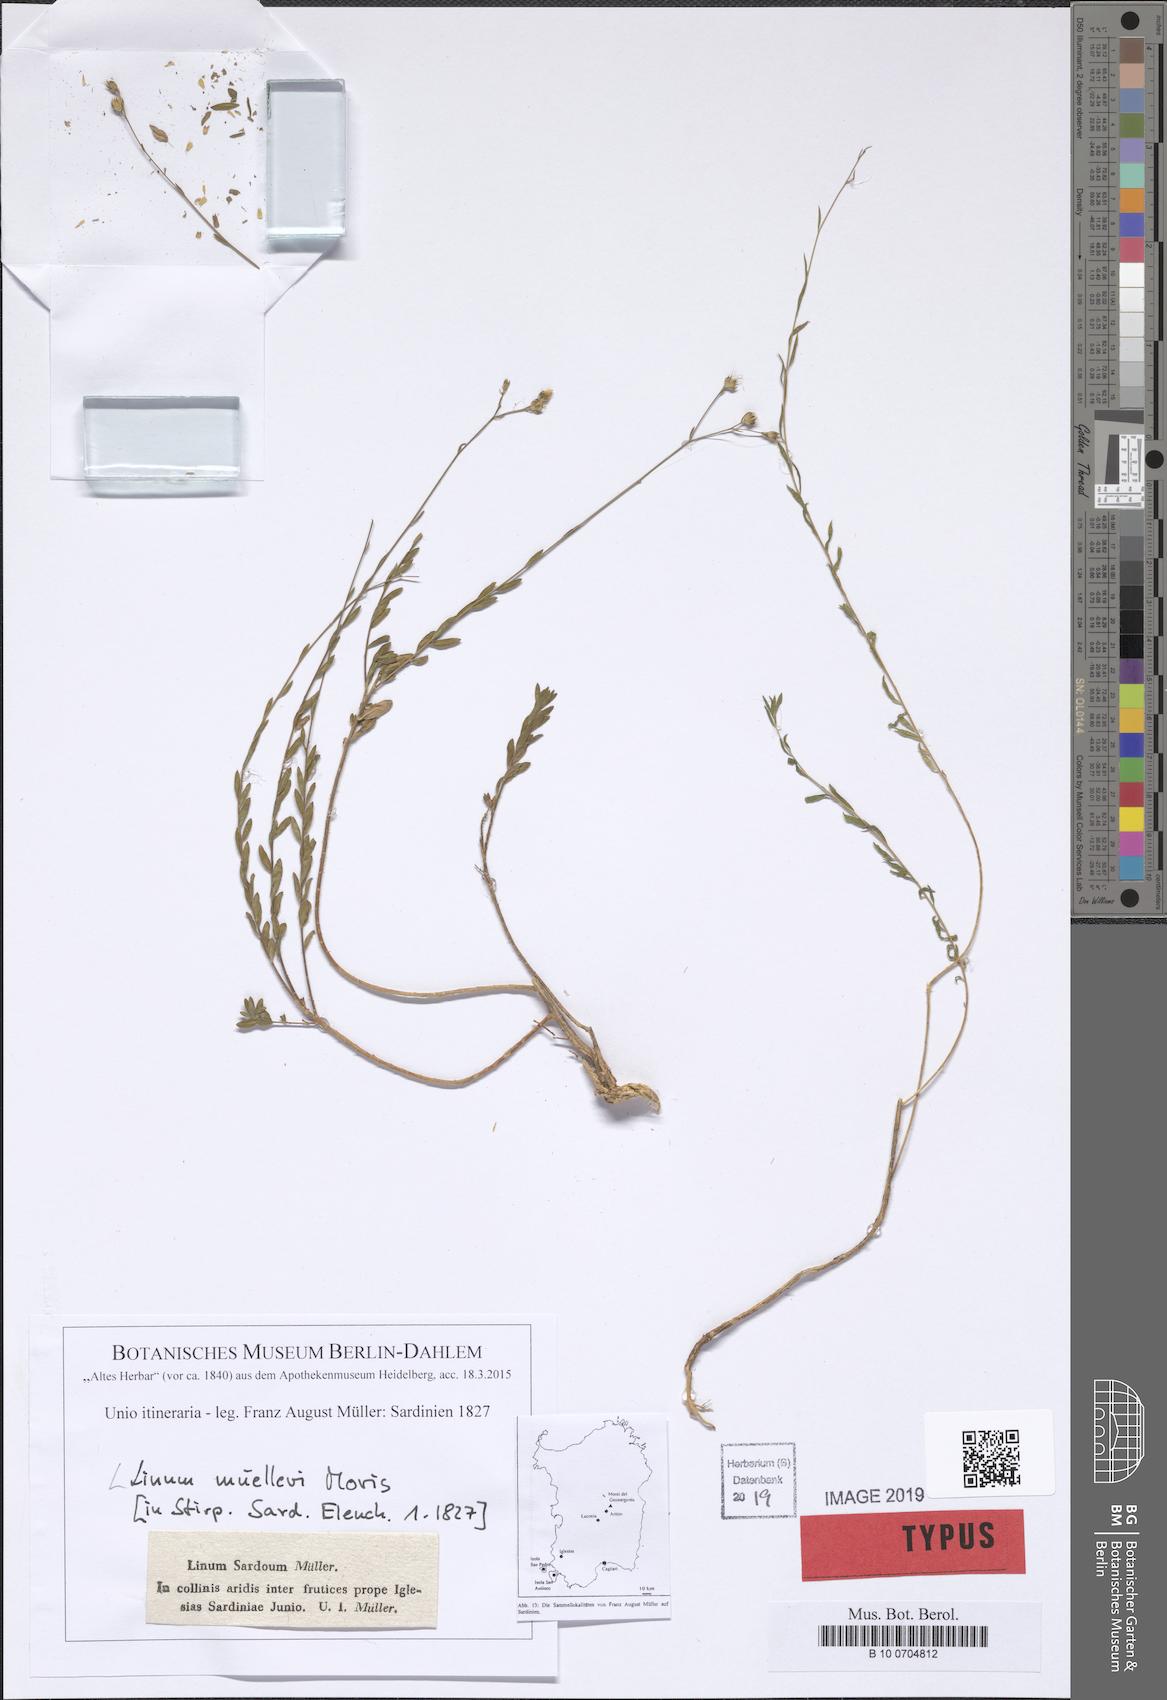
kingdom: Plantae
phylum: Tracheophyta
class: Magnoliopsida
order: Malpighiales
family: Linaceae
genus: Linum
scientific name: Linum maritimum
